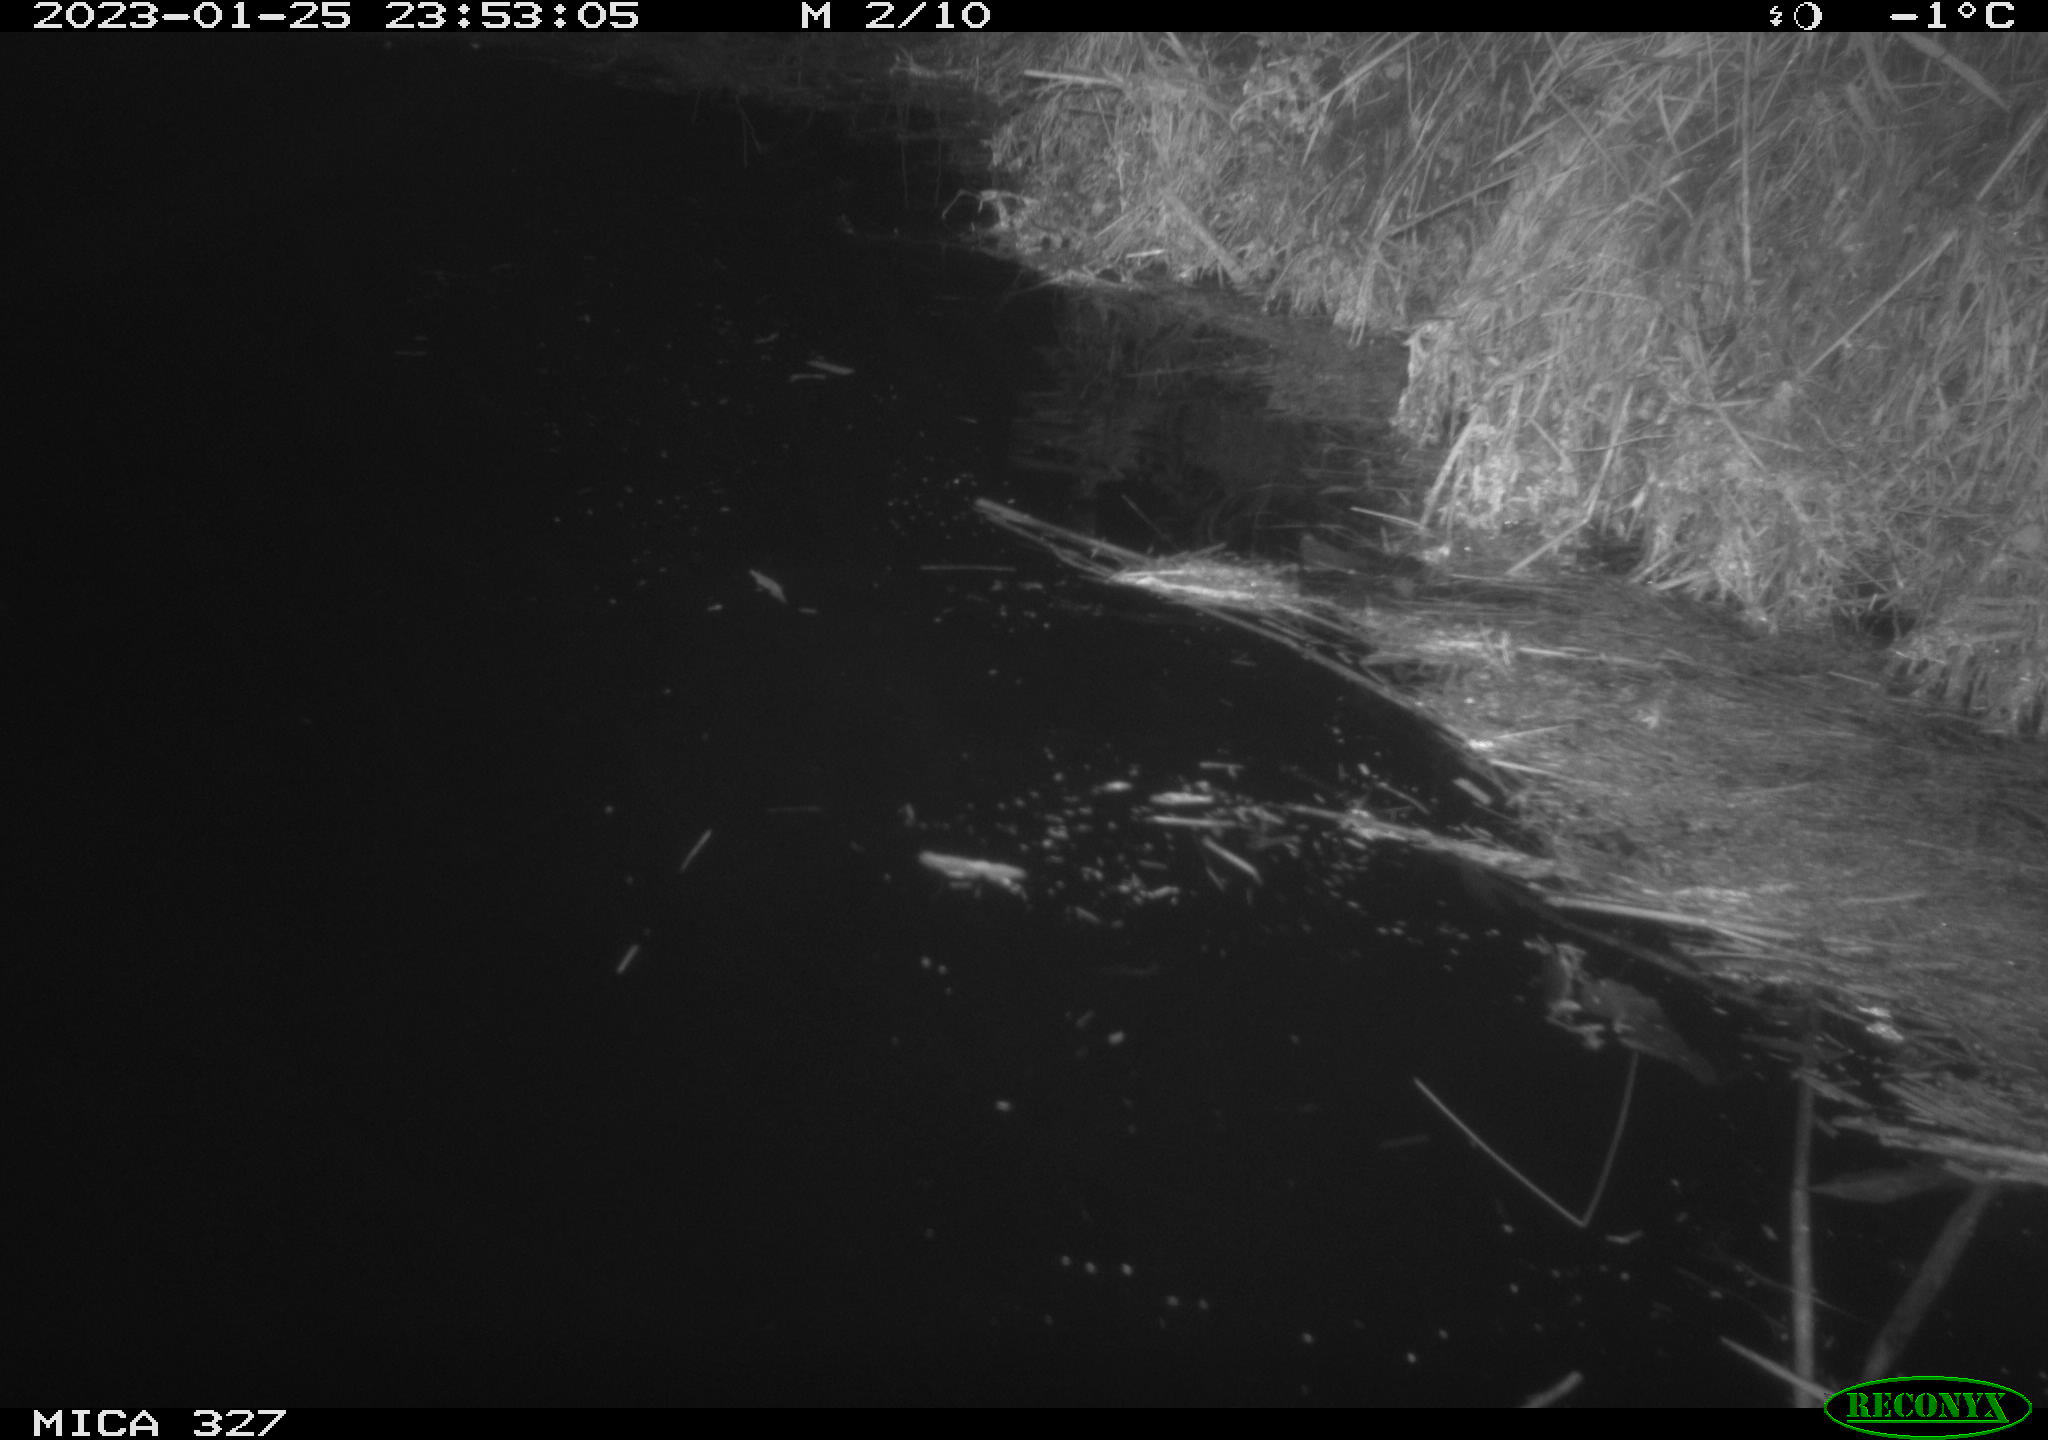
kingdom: Animalia
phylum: Chordata
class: Mammalia
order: Rodentia
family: Cricetidae
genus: Ondatra
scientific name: Ondatra zibethicus
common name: Muskrat
